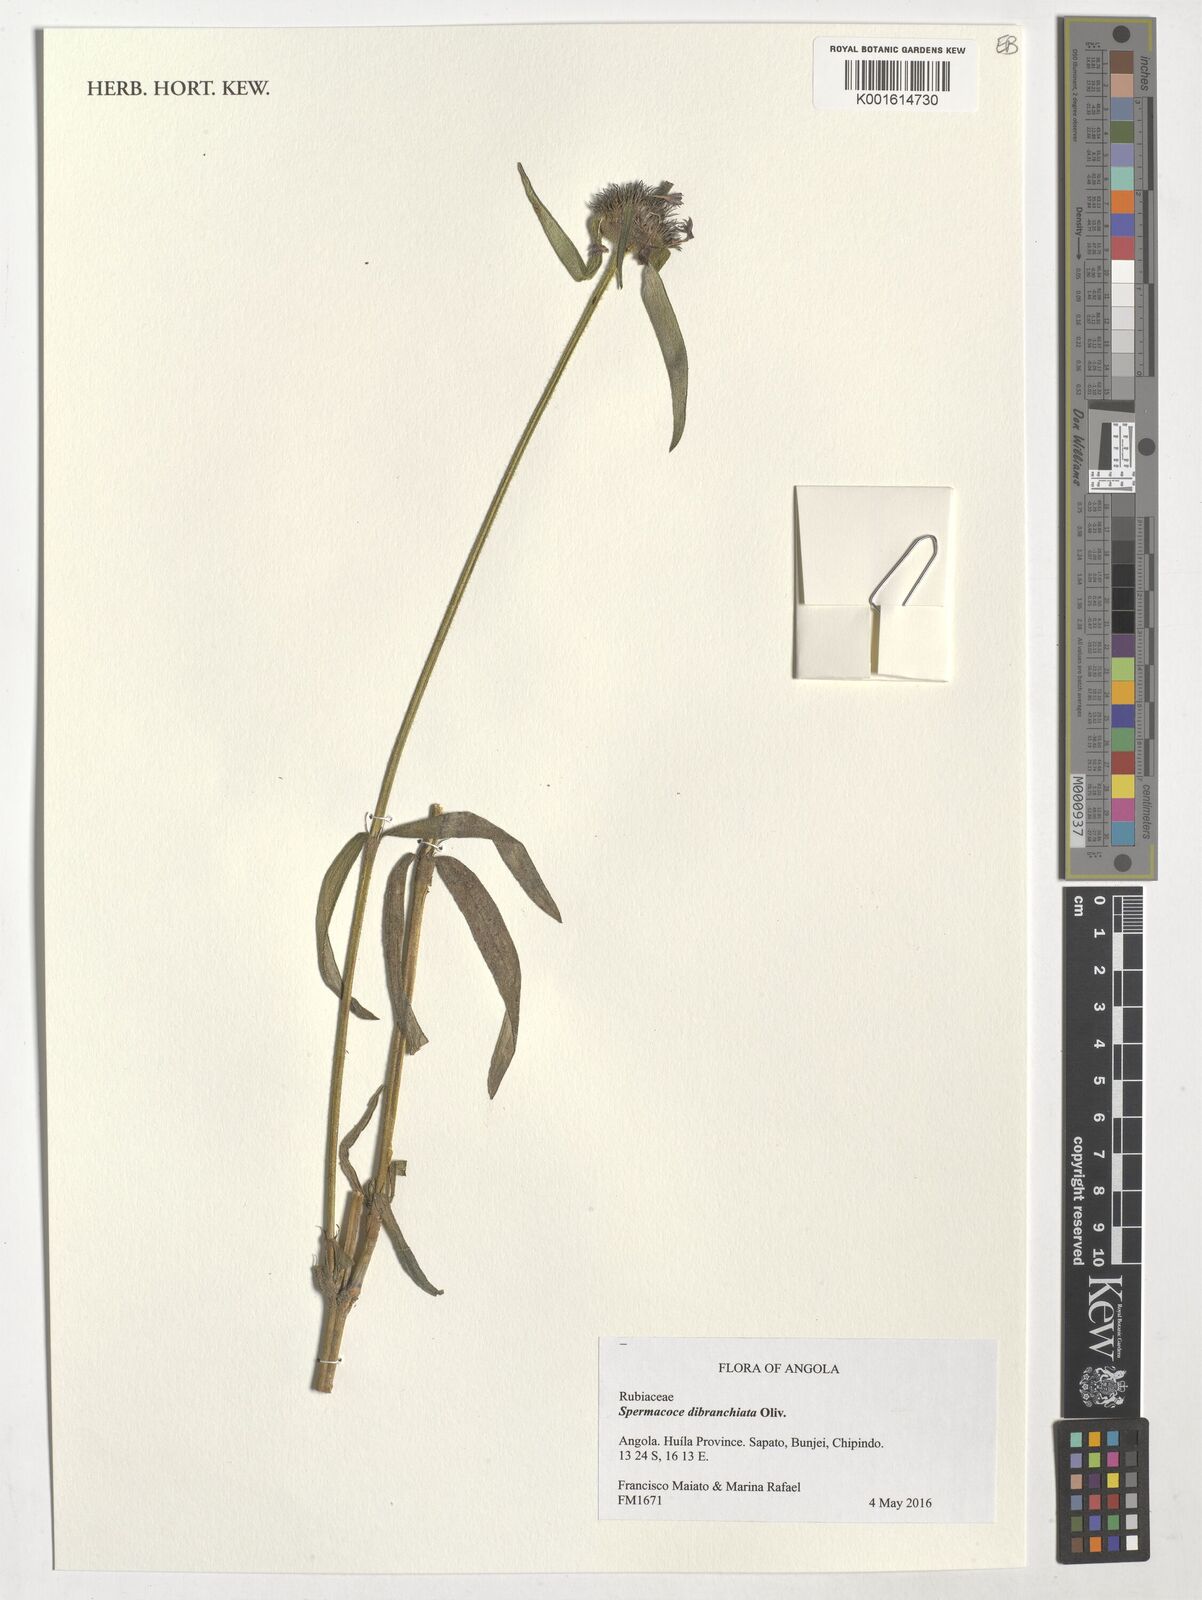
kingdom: Plantae
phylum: Tracheophyta
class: Magnoliopsida
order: Gentianales
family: Rubiaceae
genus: Spermacoce
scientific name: Spermacoce dibrachiata
